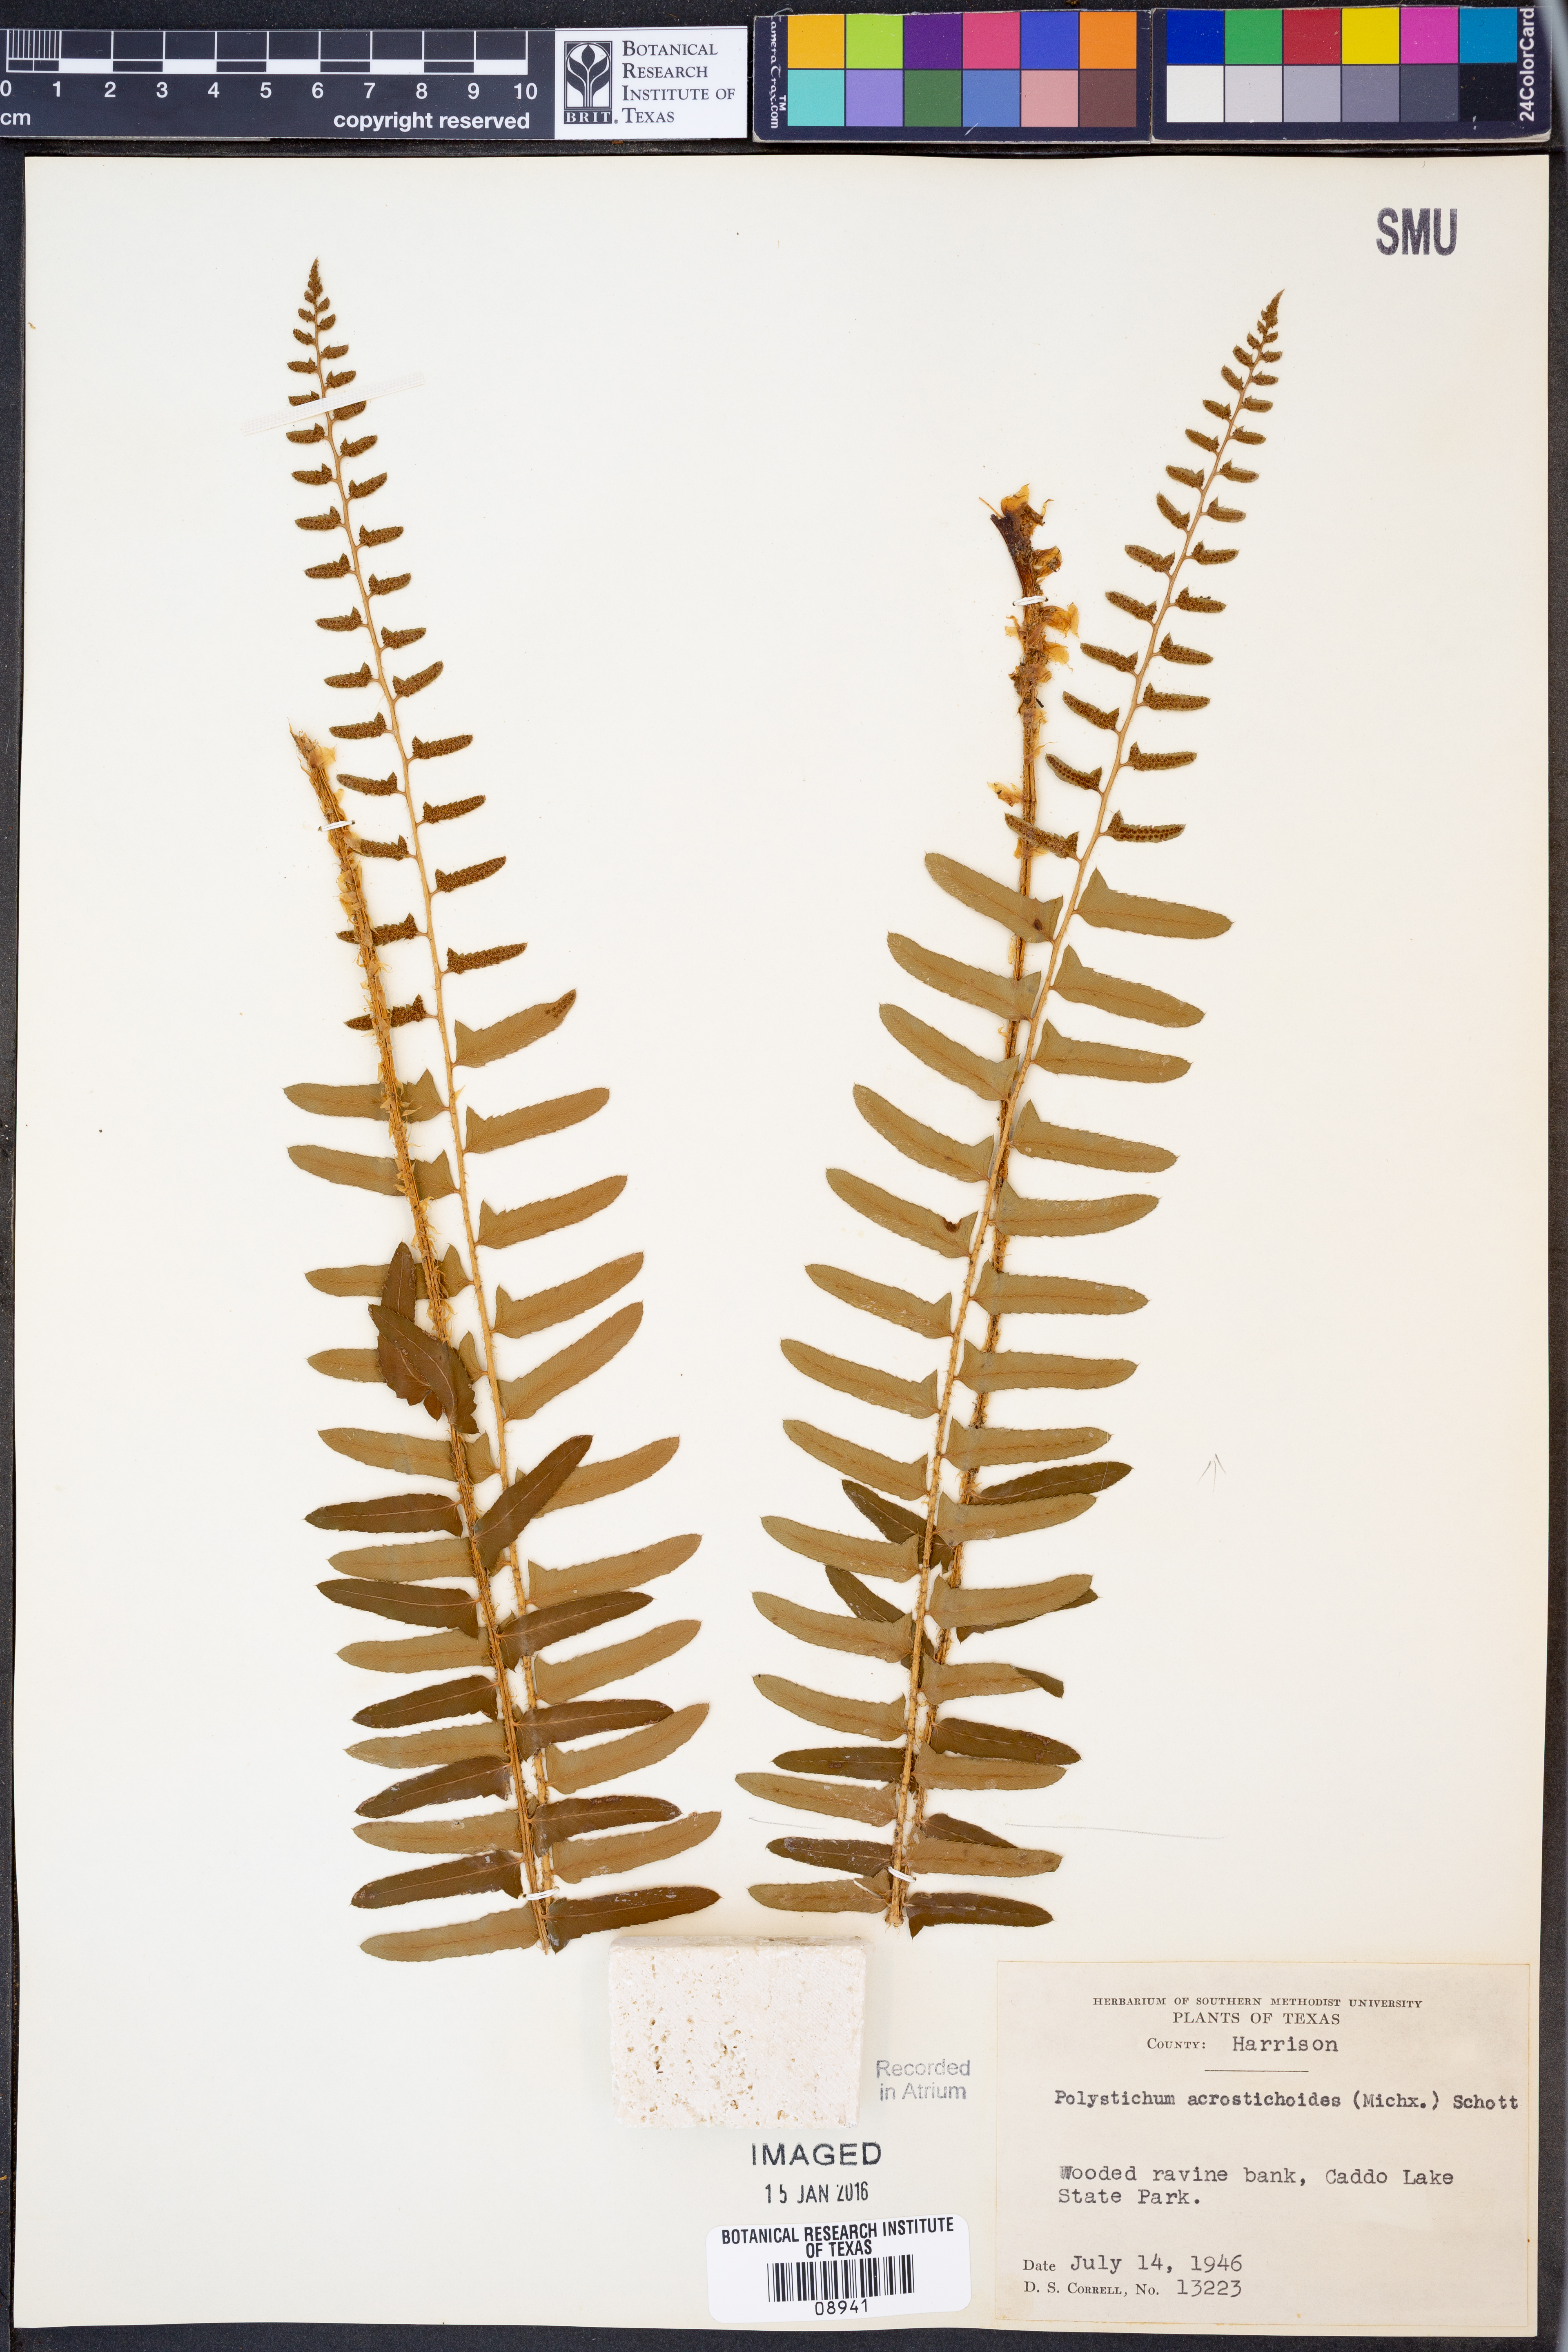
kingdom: Plantae
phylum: Tracheophyta
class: Polypodiopsida
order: Polypodiales
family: Dryopteridaceae
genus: Polystichum
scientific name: Polystichum acrostichoides
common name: Christmas fern
